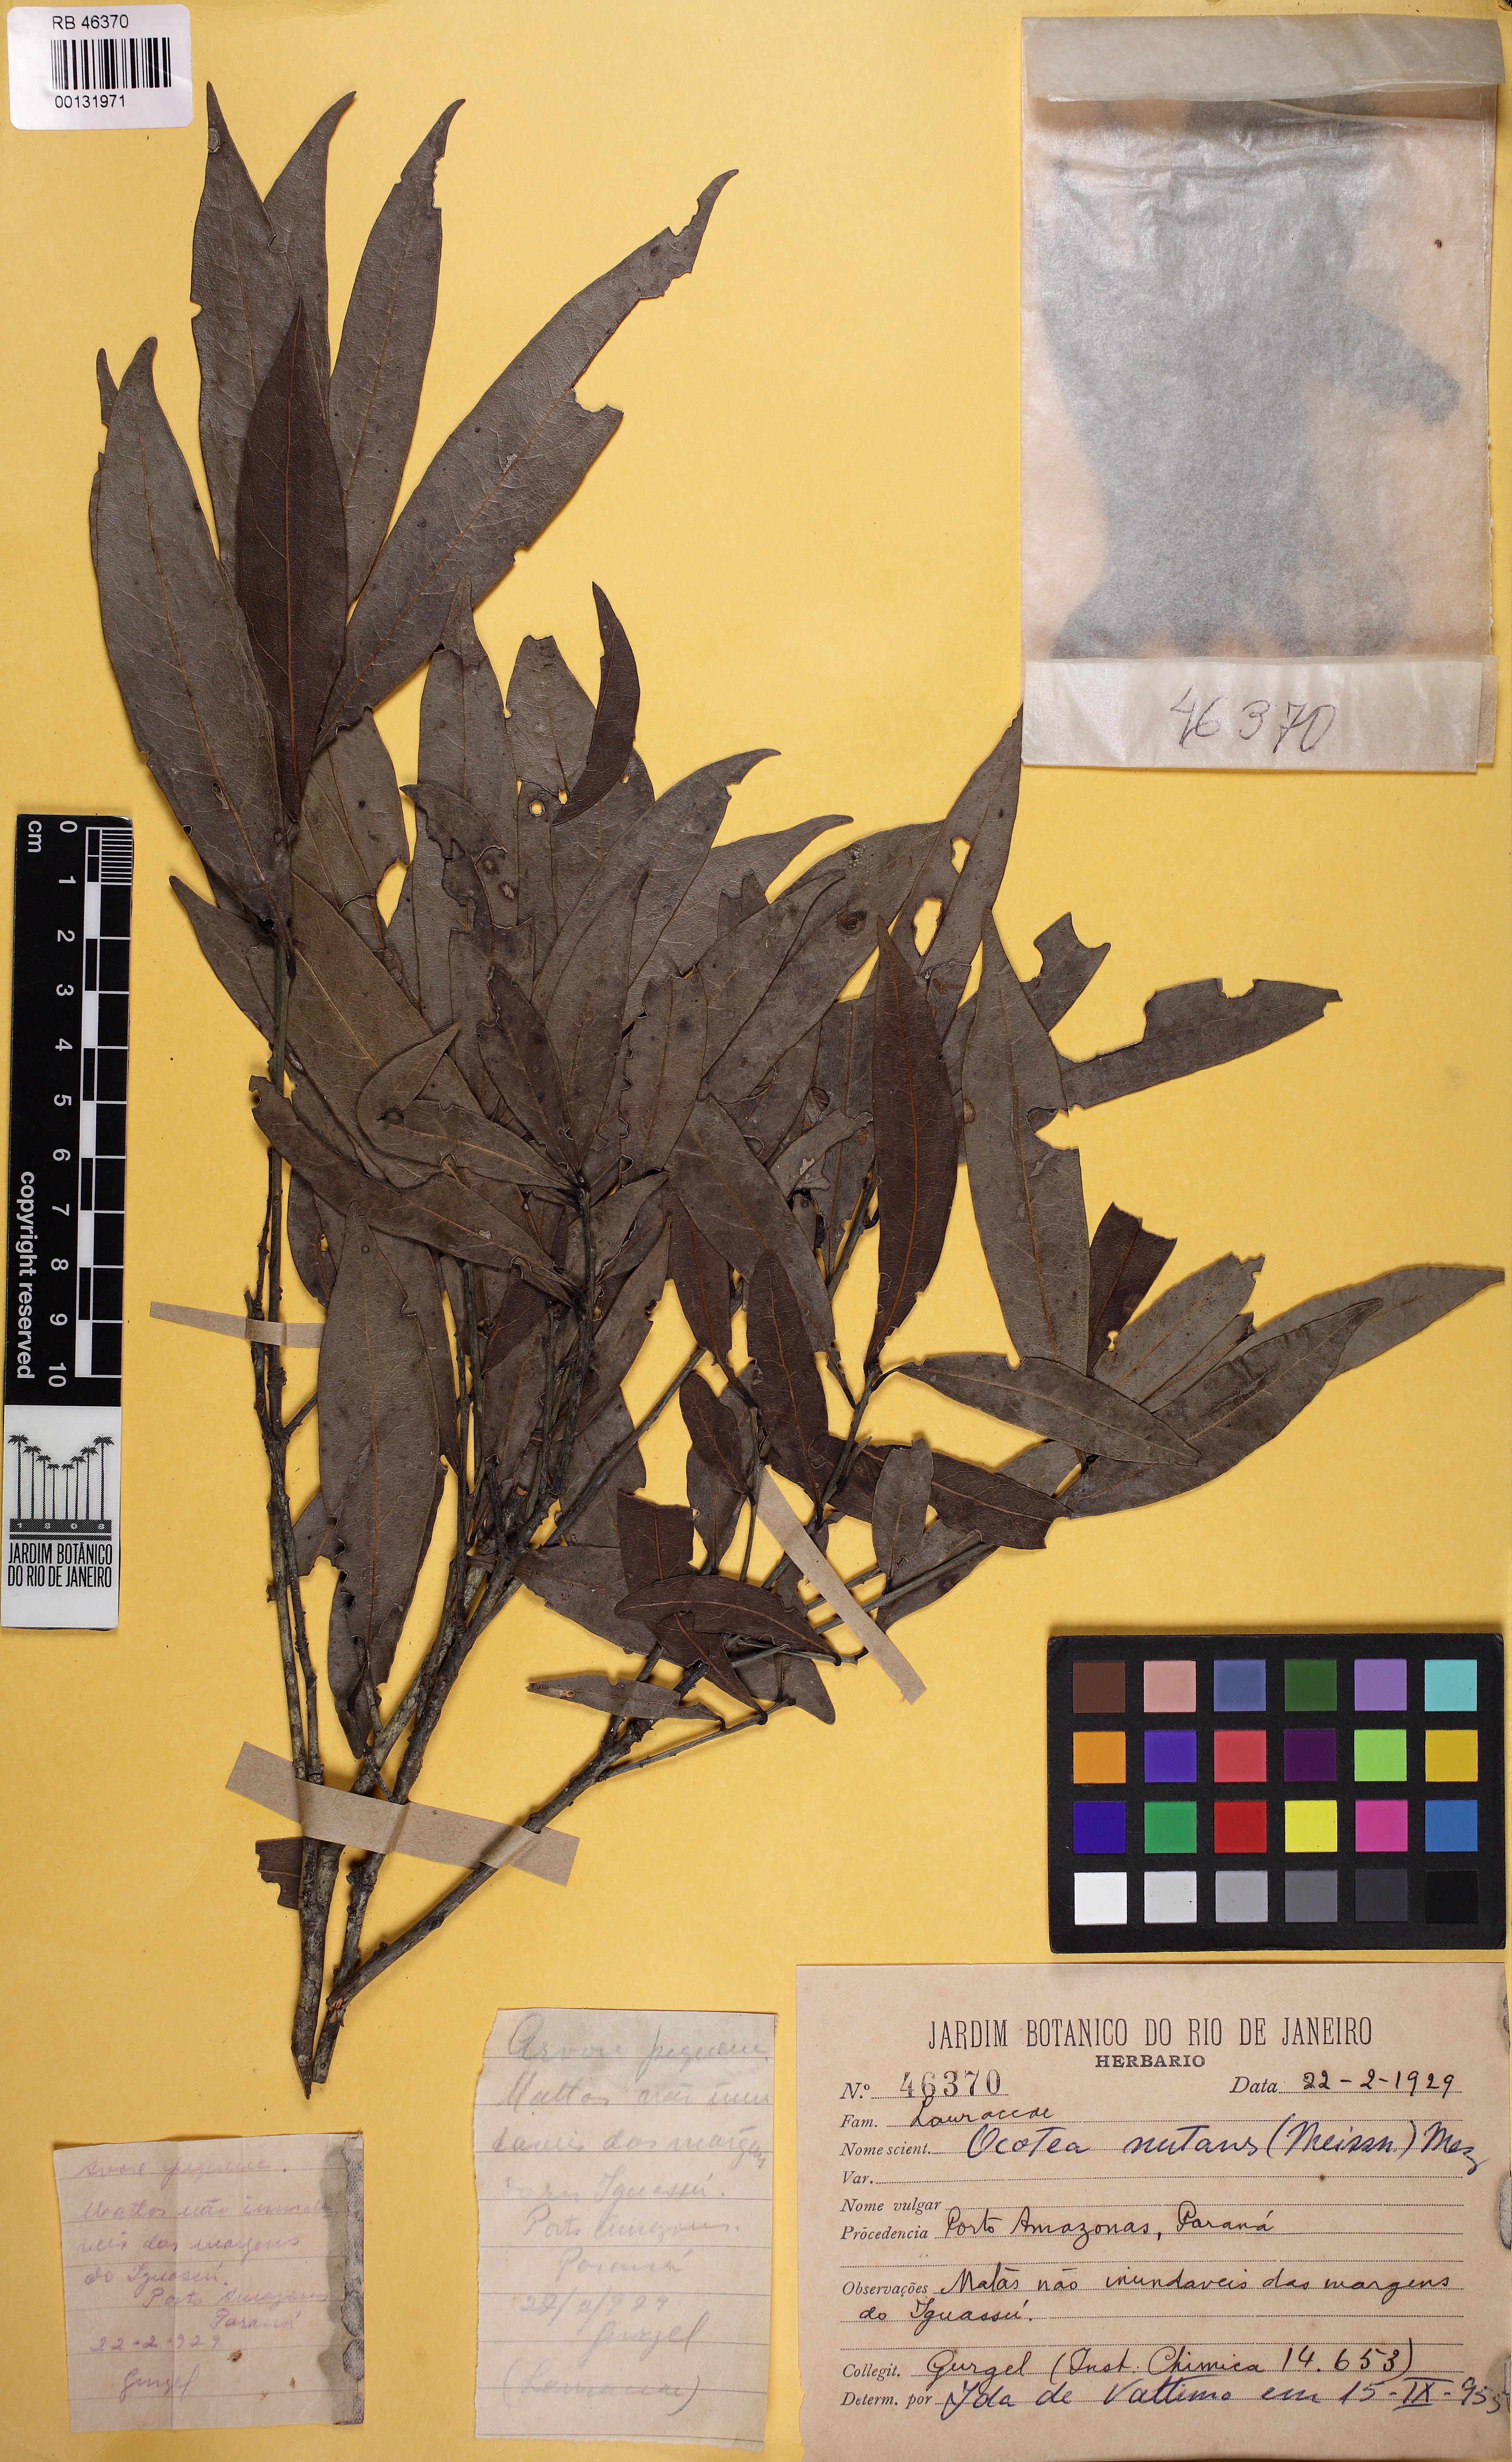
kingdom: Plantae
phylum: Tracheophyta
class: Magnoliopsida
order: Laurales
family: Lauraceae
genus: Mespilodaphne
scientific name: Mespilodaphne nutans
